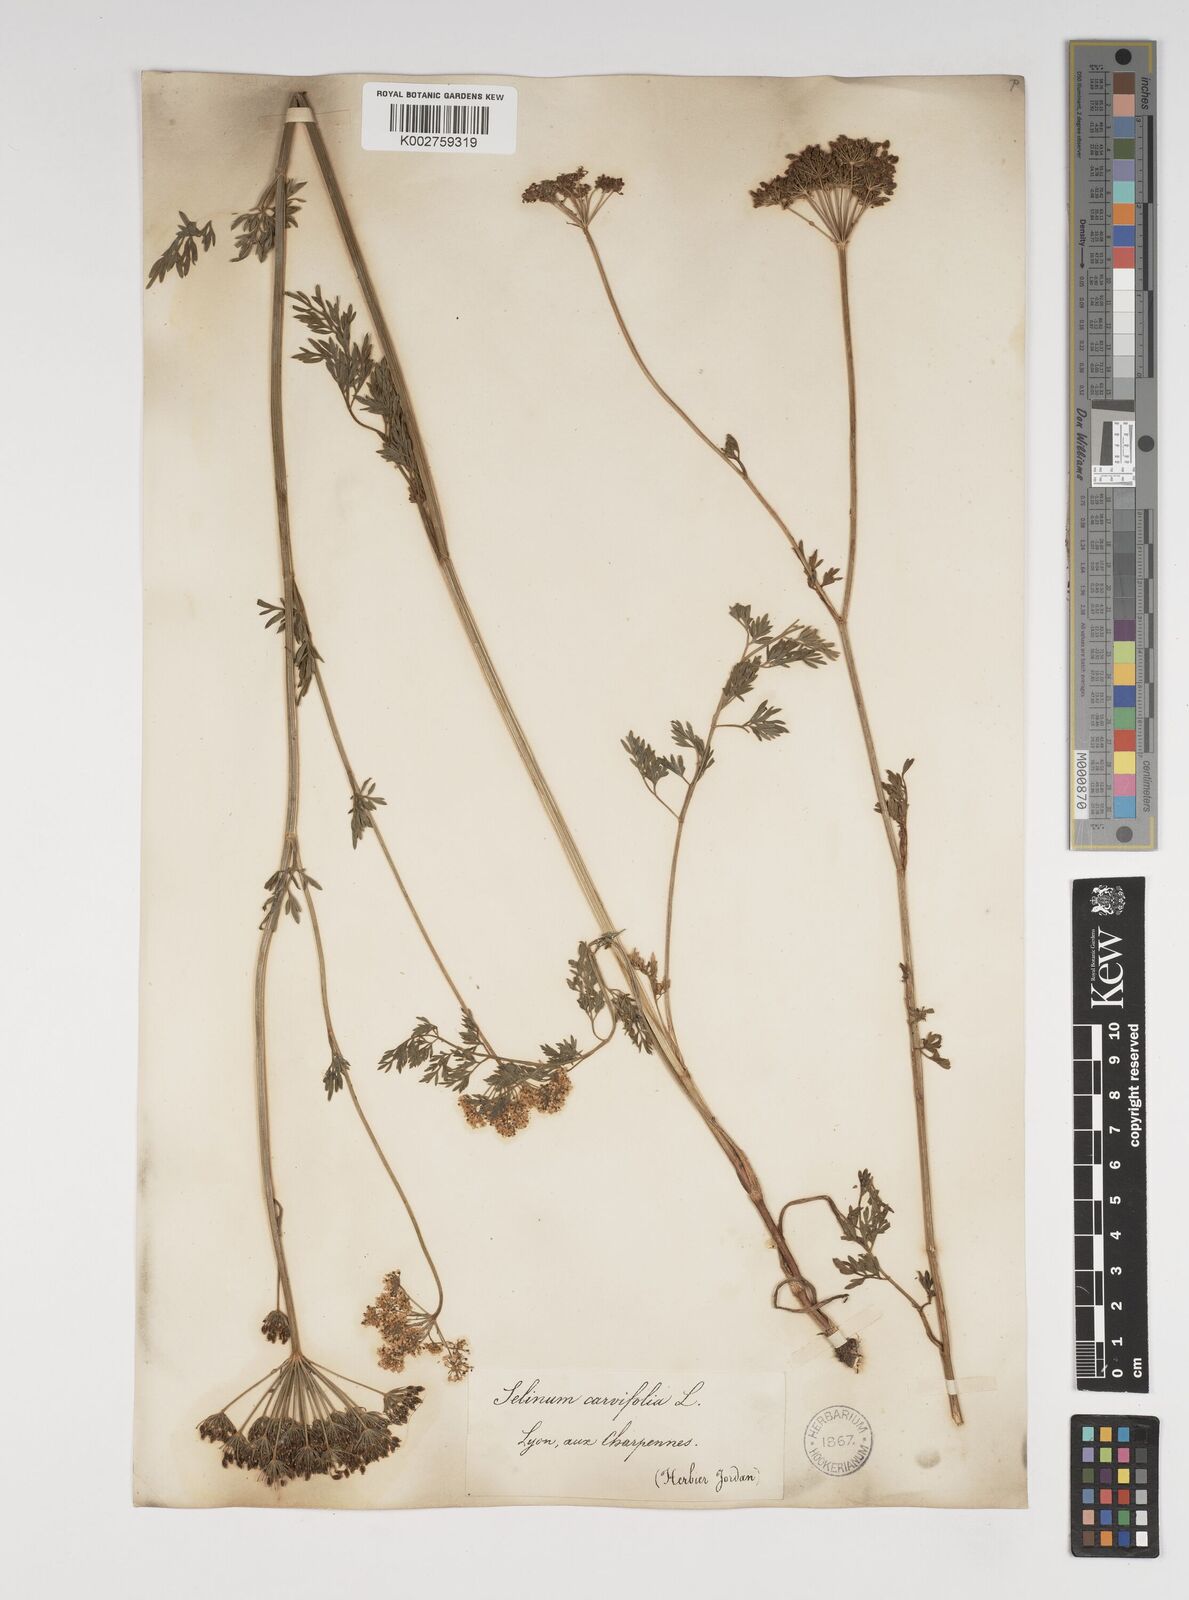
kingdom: Plantae
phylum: Tracheophyta
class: Magnoliopsida
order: Apiales
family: Apiaceae
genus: Selinum
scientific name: Selinum carvifolia
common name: Cambridge milk-parsley
